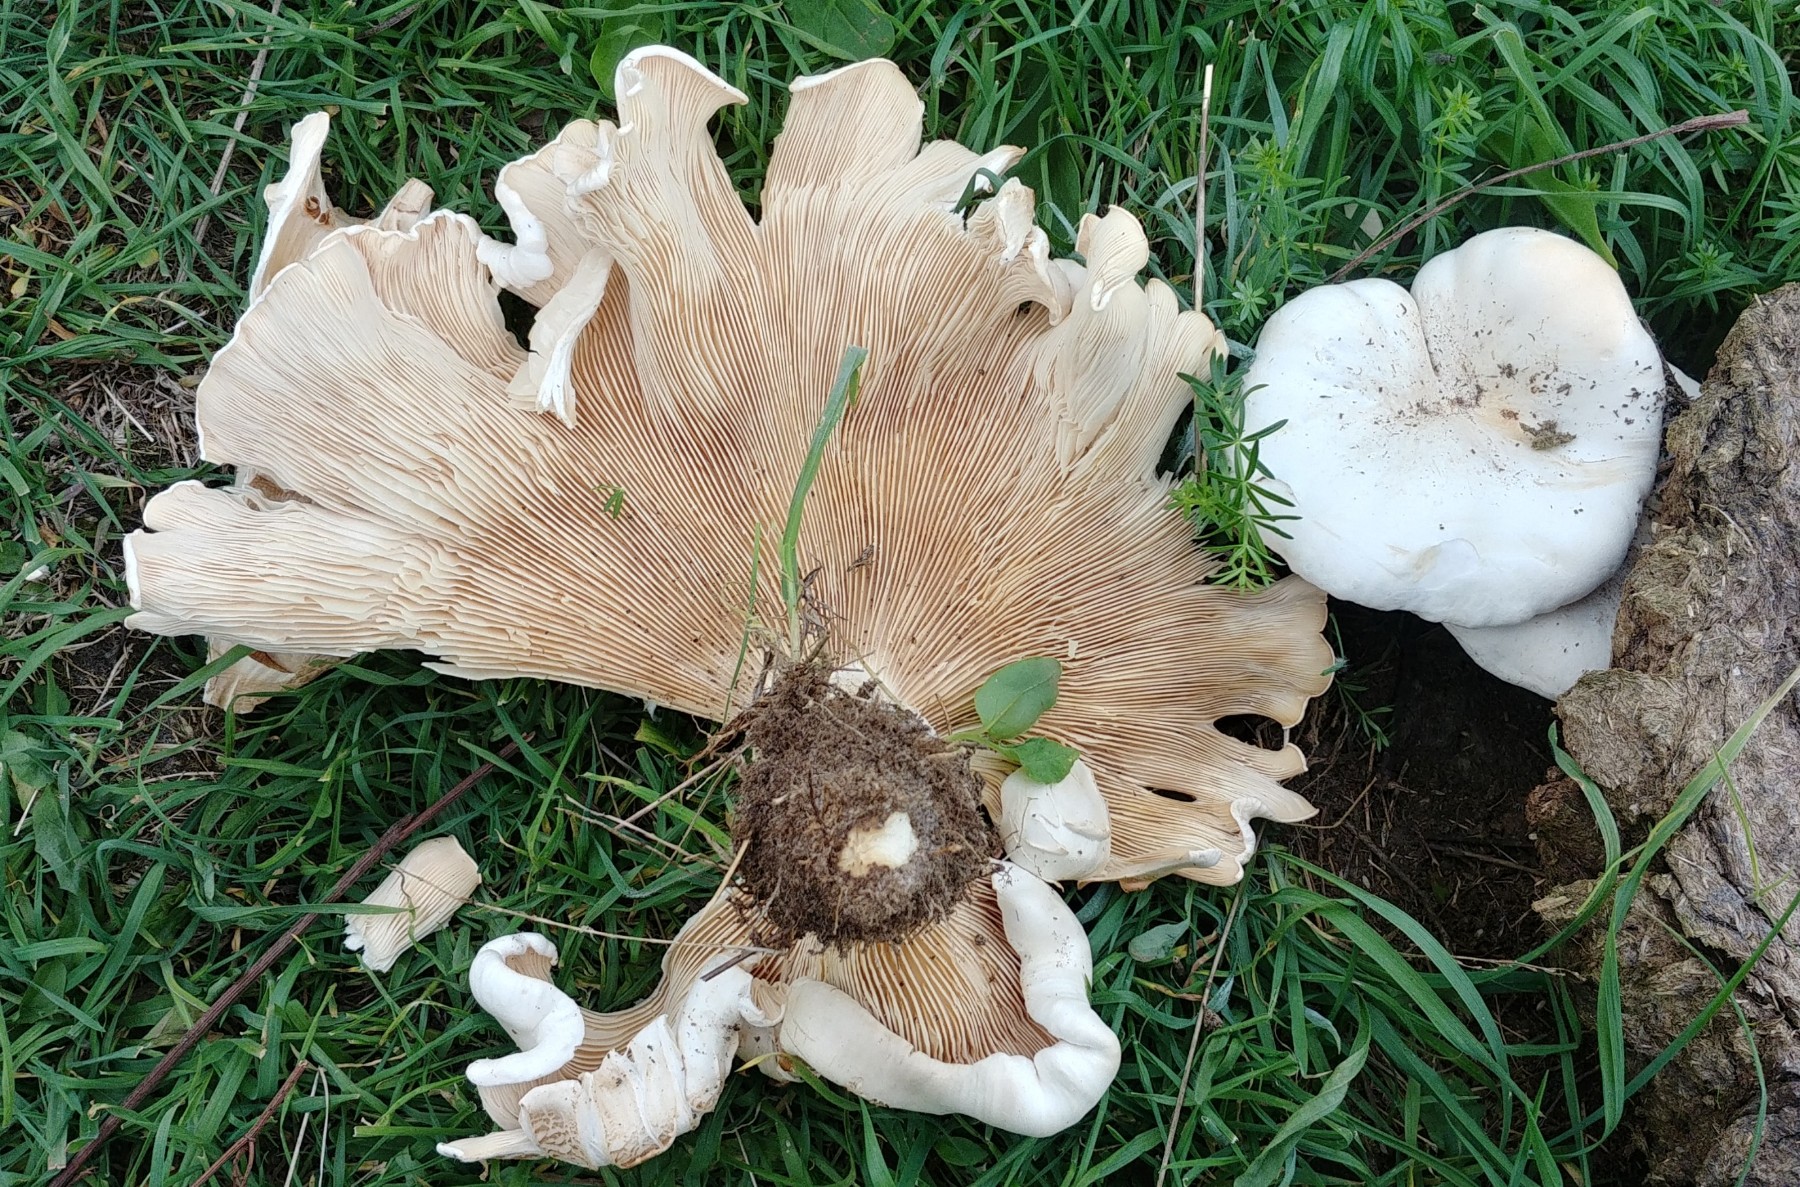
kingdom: Fungi
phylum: Basidiomycota
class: Agaricomycetes
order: Agaricales
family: Tricholomataceae
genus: Aspropaxillus
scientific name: Aspropaxillus giganteus
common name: kæmpe-tragtridderhat
